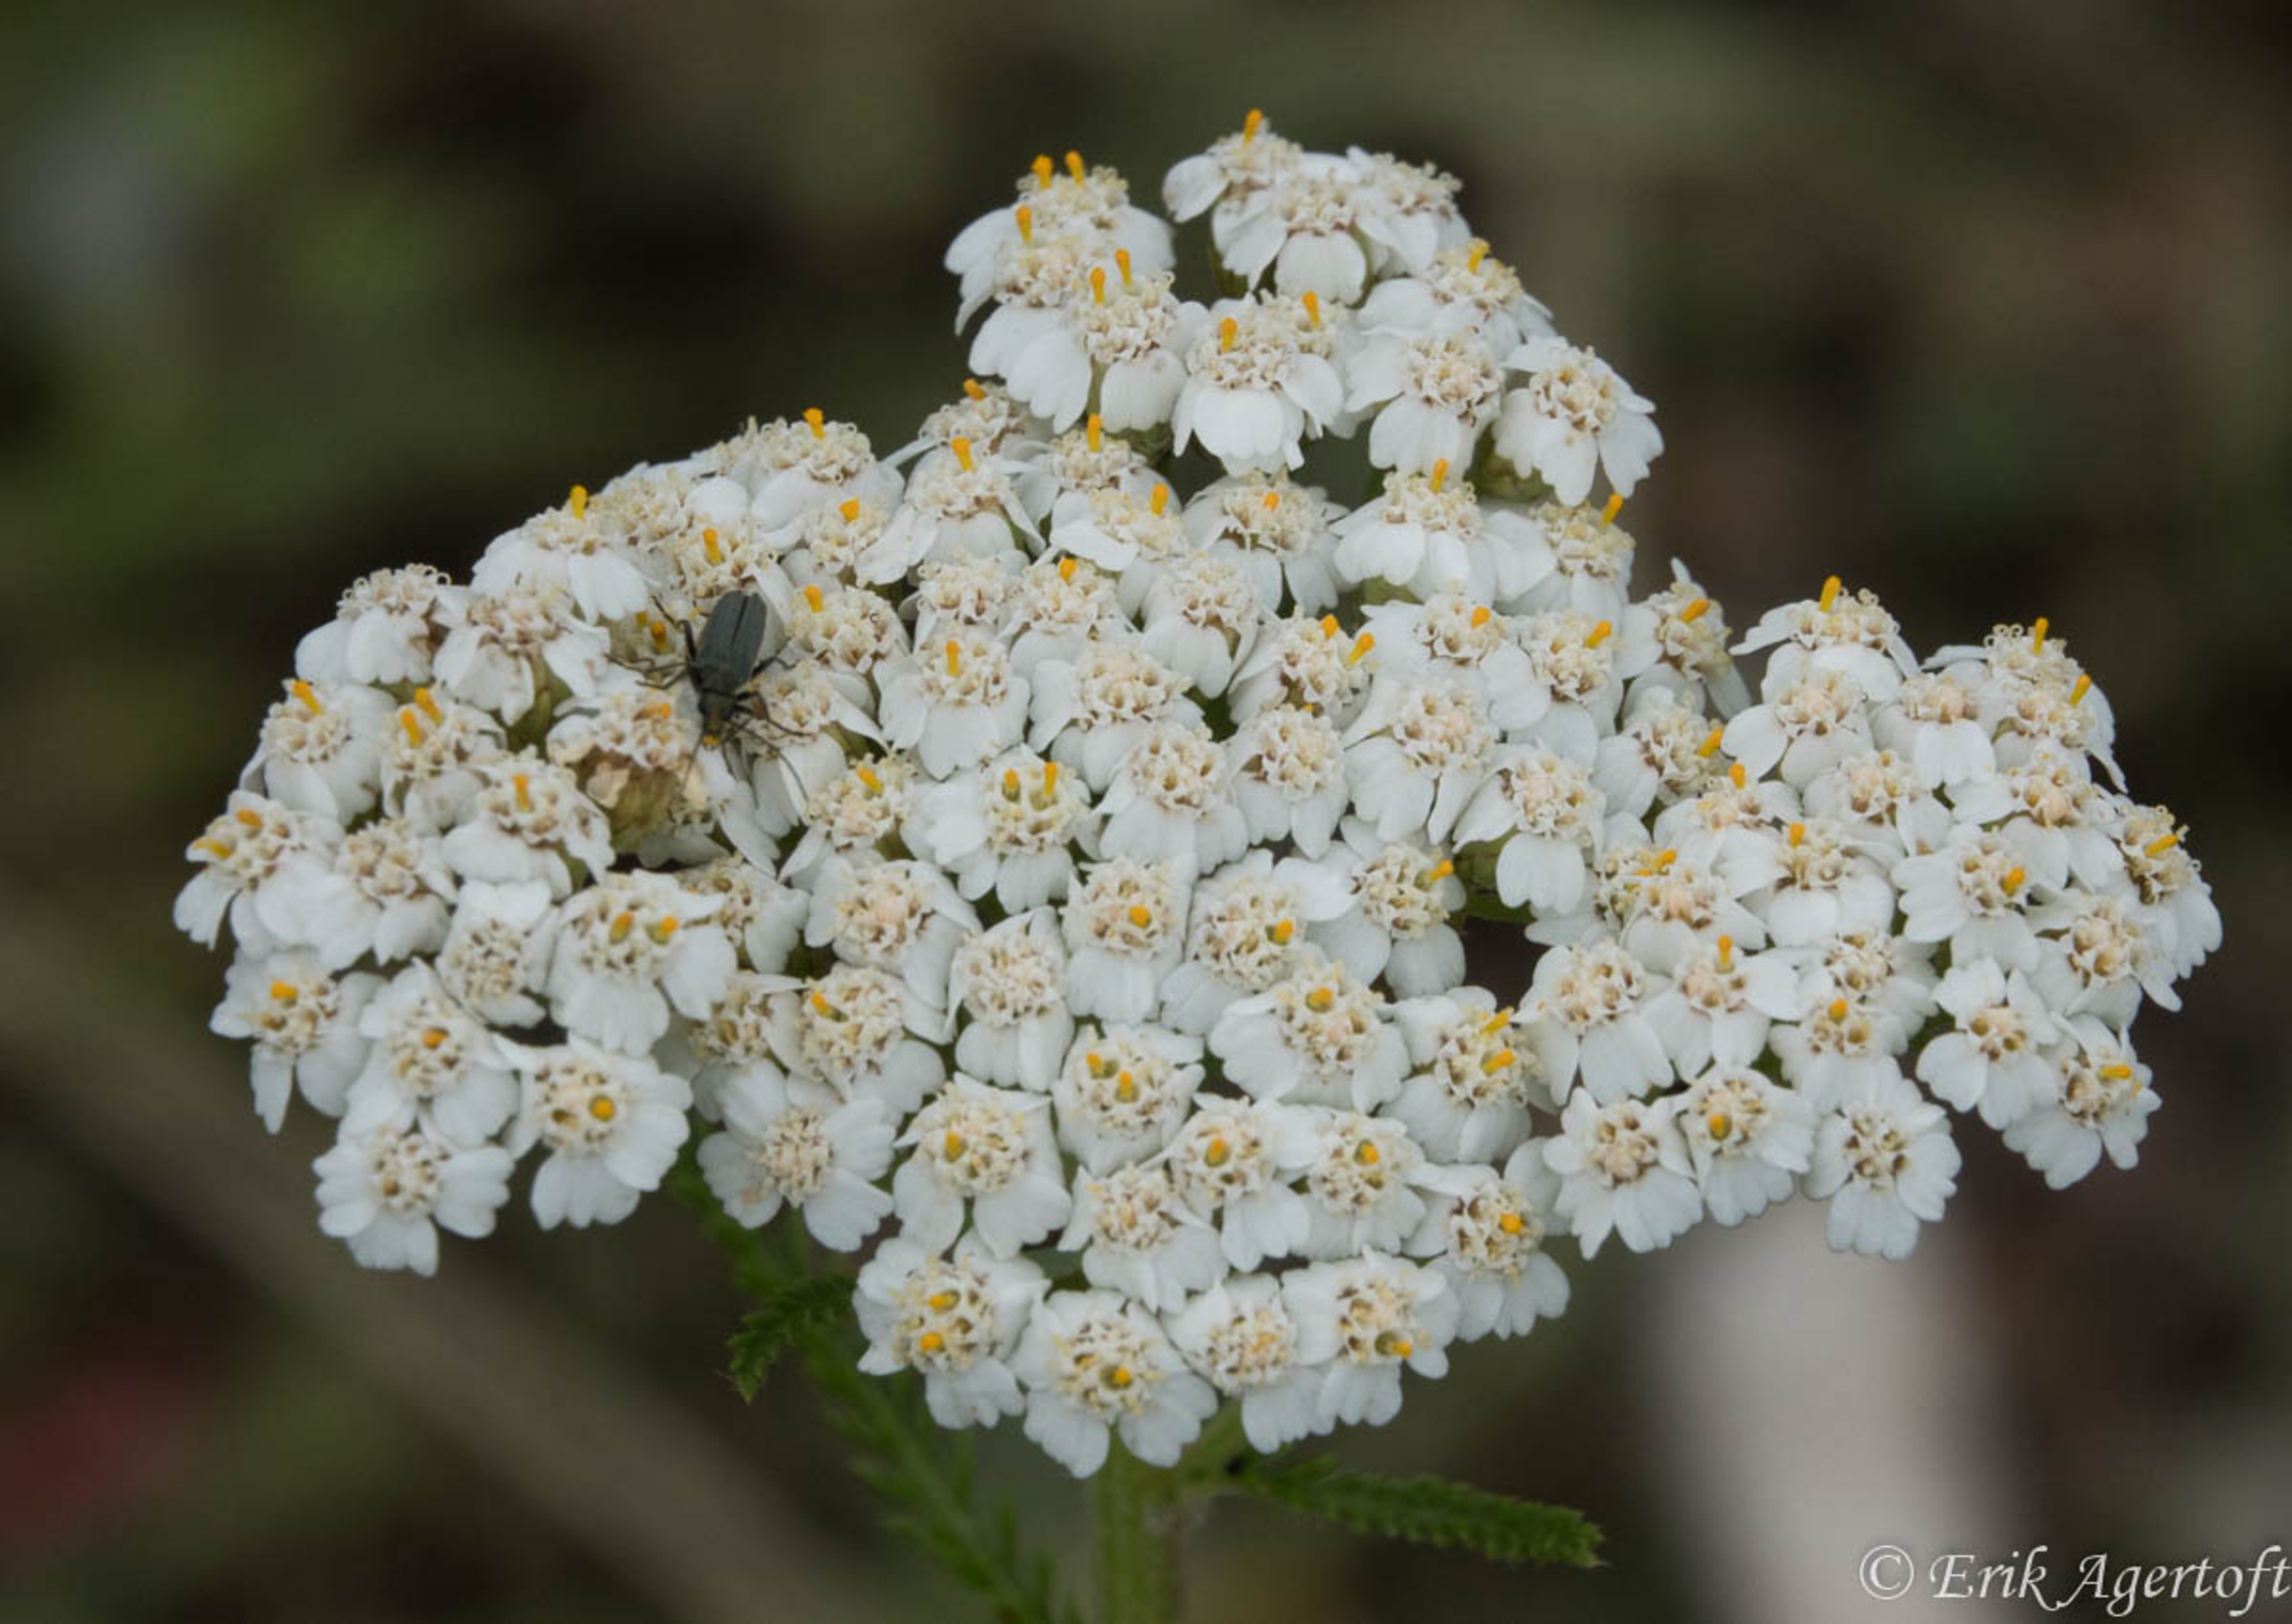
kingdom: Plantae
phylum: Tracheophyta
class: Magnoliopsida
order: Asterales
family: Asteraceae
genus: Achillea
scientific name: Achillea millefolium
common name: Almindelig røllike
